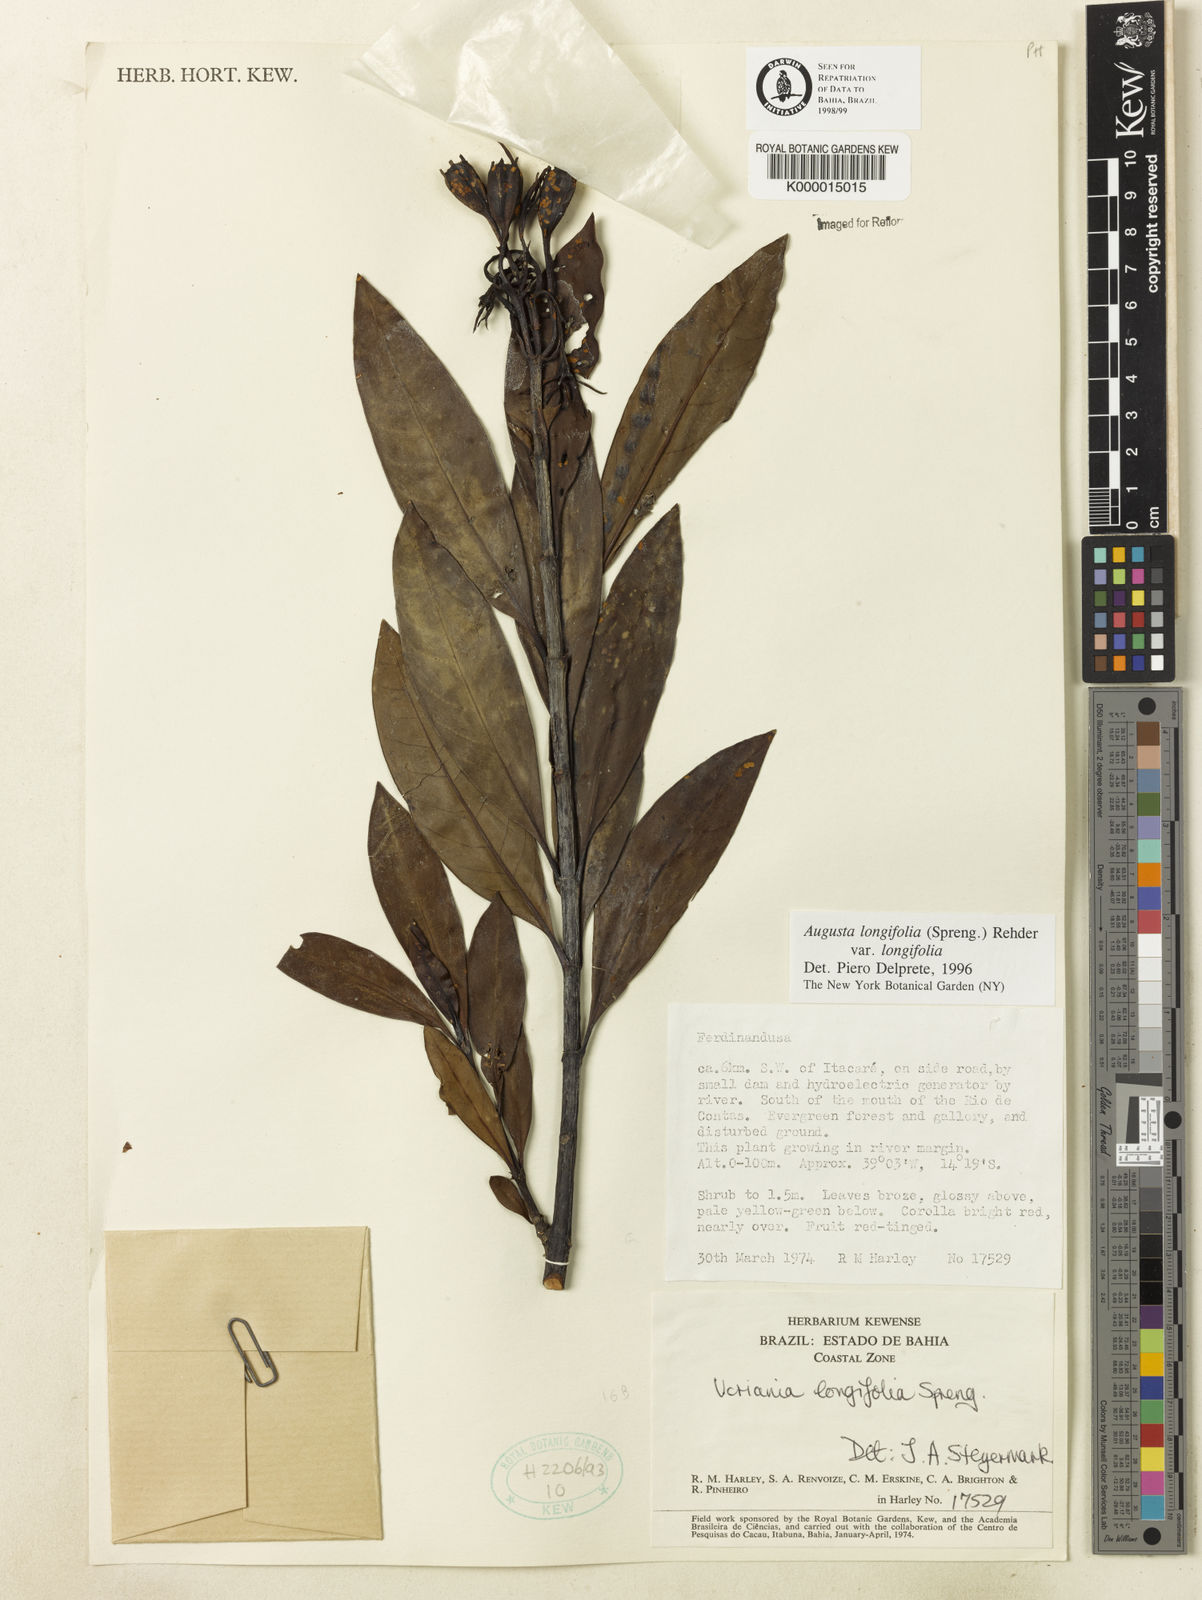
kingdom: Plantae
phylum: Tracheophyta
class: Magnoliopsida
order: Gentianales
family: Rubiaceae
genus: Augusta
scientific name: Augusta longifolia
